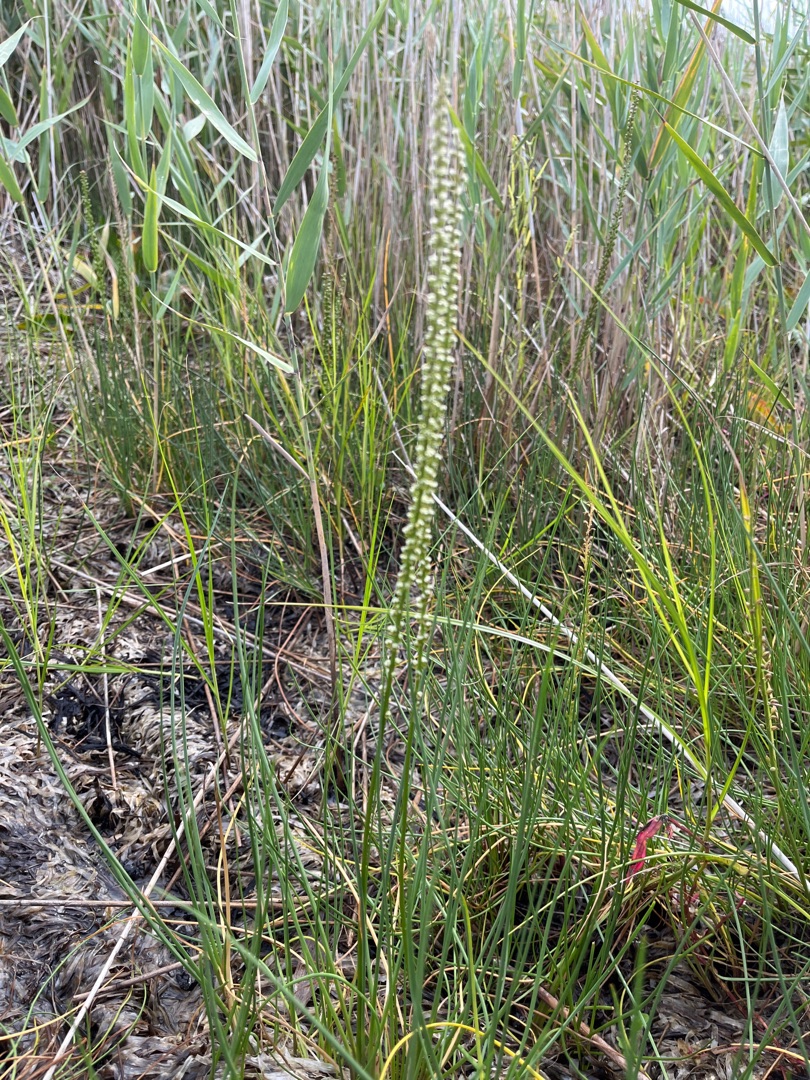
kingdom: Plantae
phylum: Tracheophyta
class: Liliopsida
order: Alismatales
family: Juncaginaceae
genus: Triglochin
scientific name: Triglochin maritima
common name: Strand-trehage
